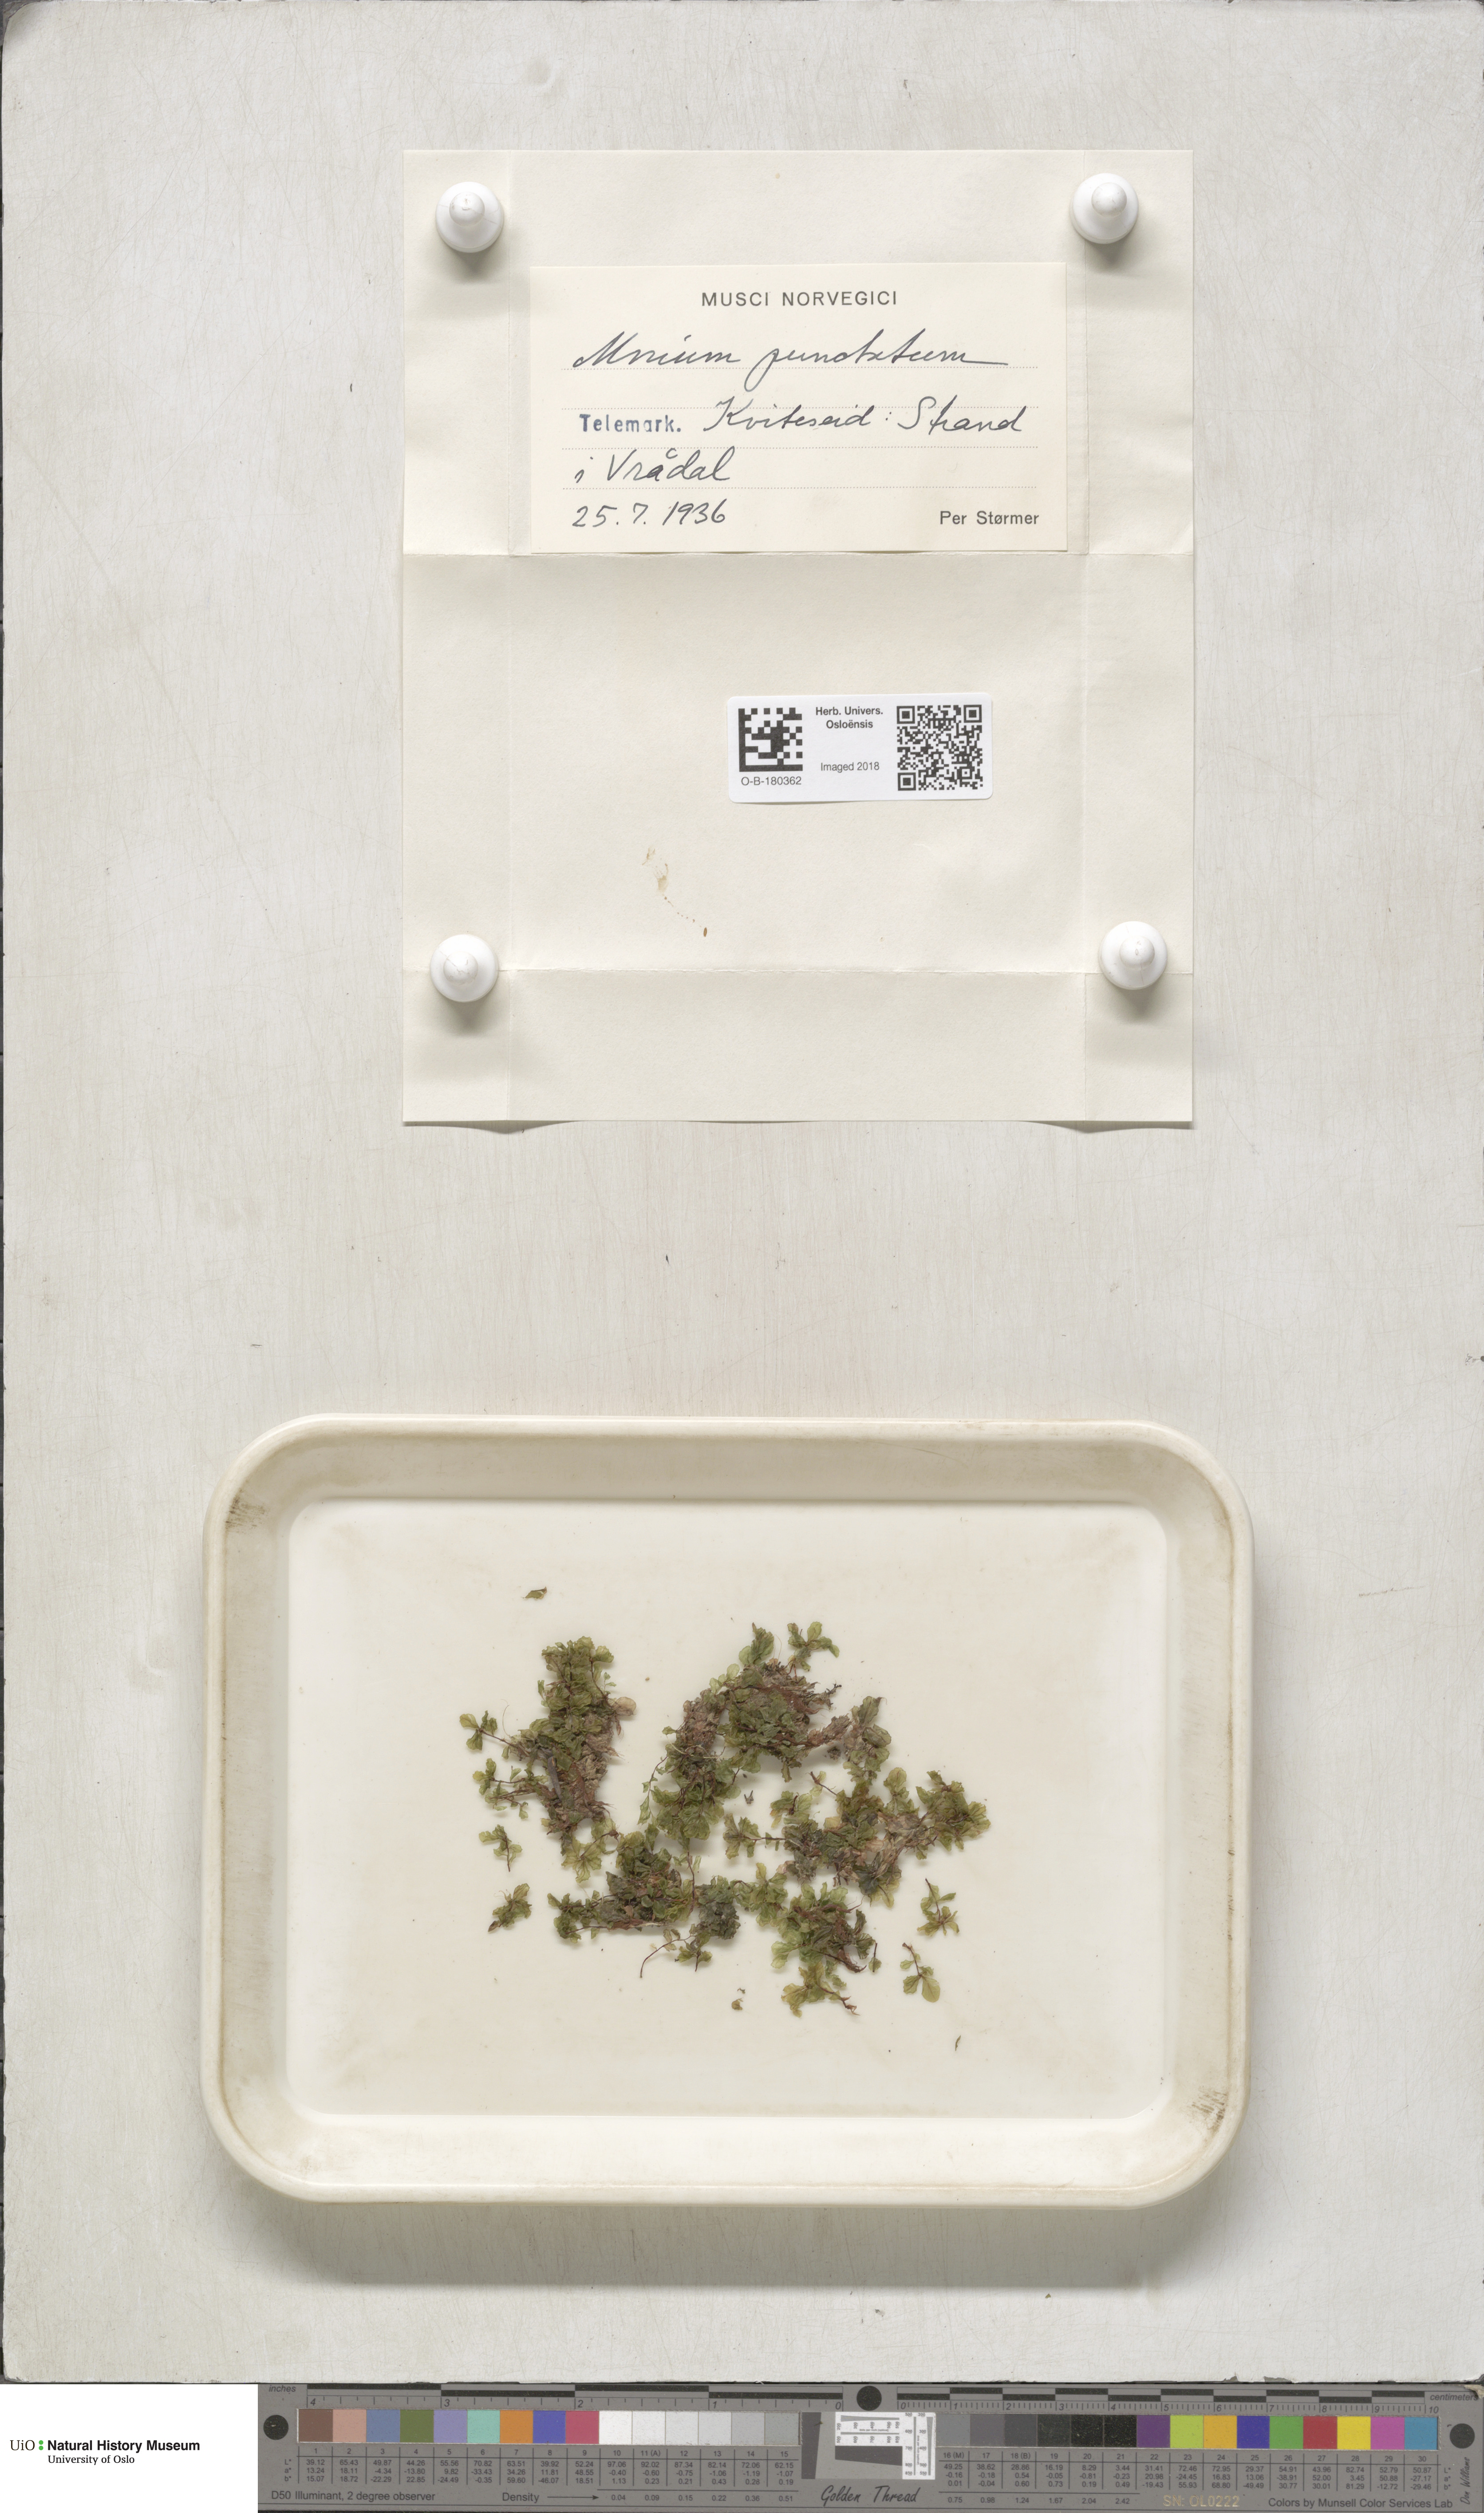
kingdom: Plantae
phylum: Bryophyta
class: Bryopsida
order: Bryales
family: Mniaceae
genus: Rhizomnium
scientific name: Rhizomnium punctatum
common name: Dotted leafy moss
